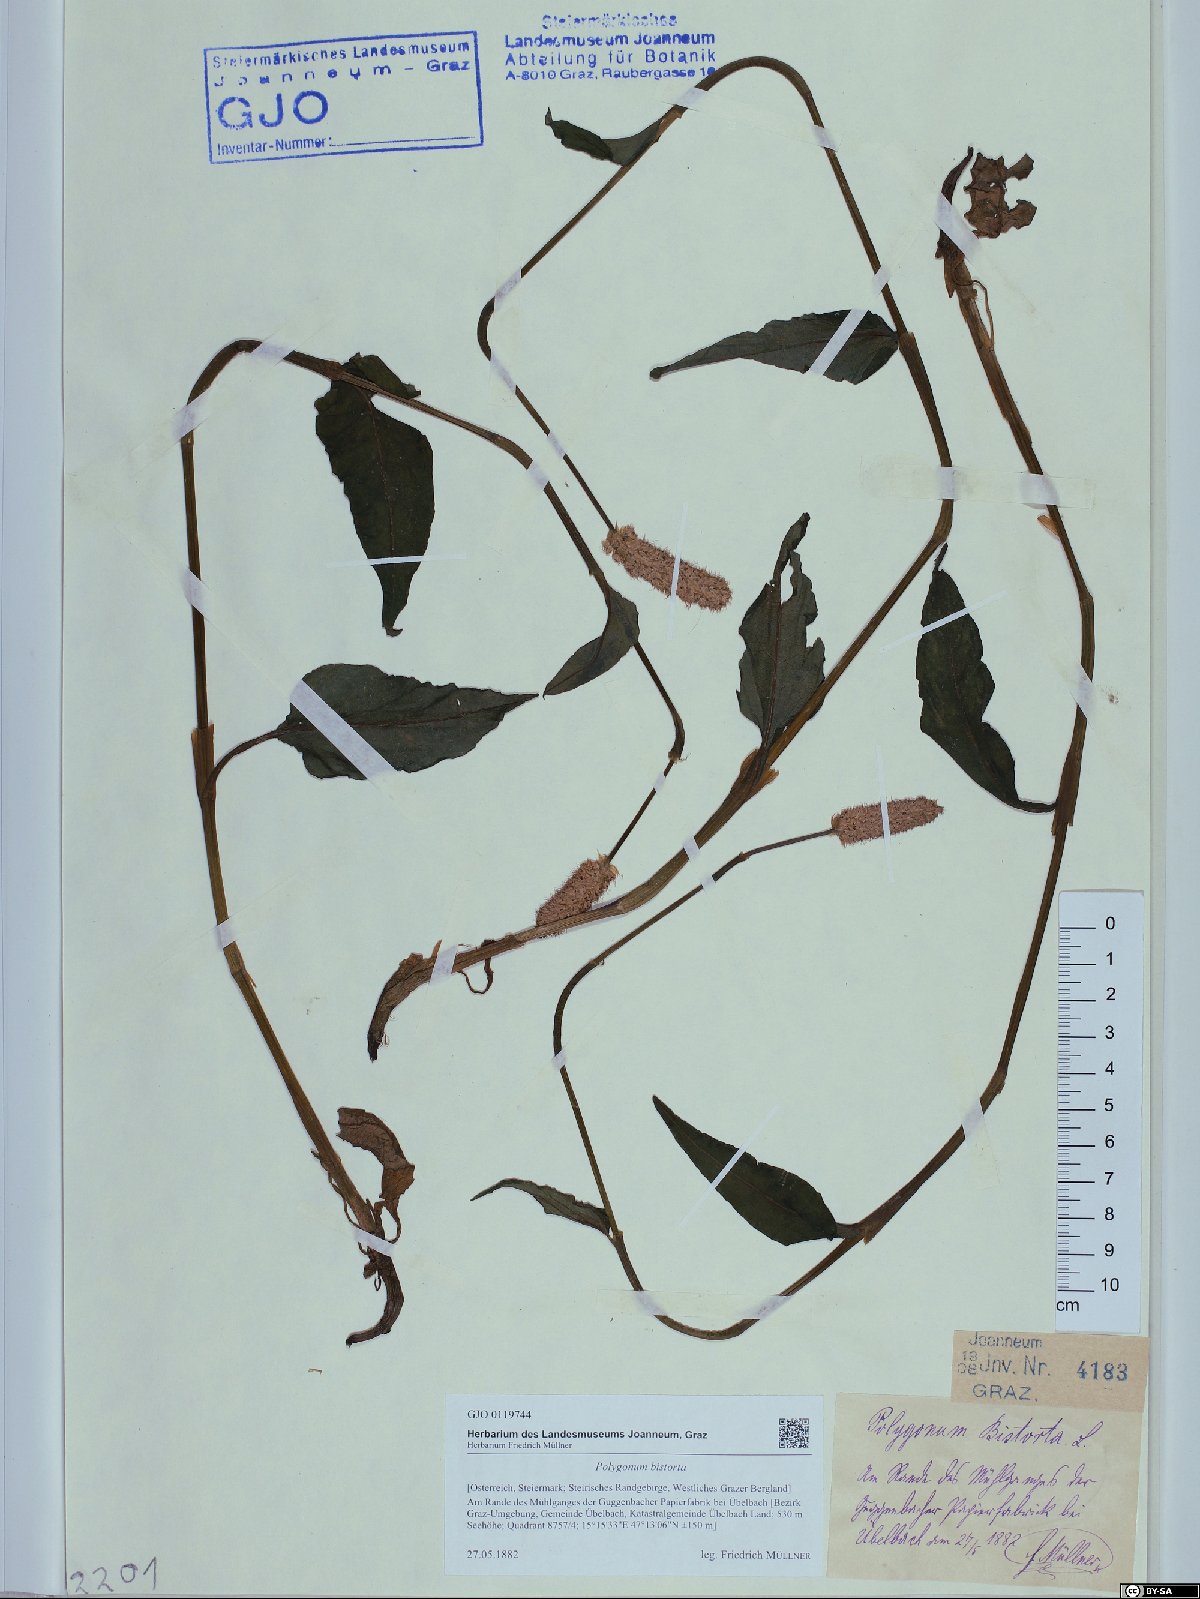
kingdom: Plantae
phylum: Tracheophyta
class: Magnoliopsida
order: Caryophyllales
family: Polygonaceae
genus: Bistorta
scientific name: Bistorta officinalis
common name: Common bistort
